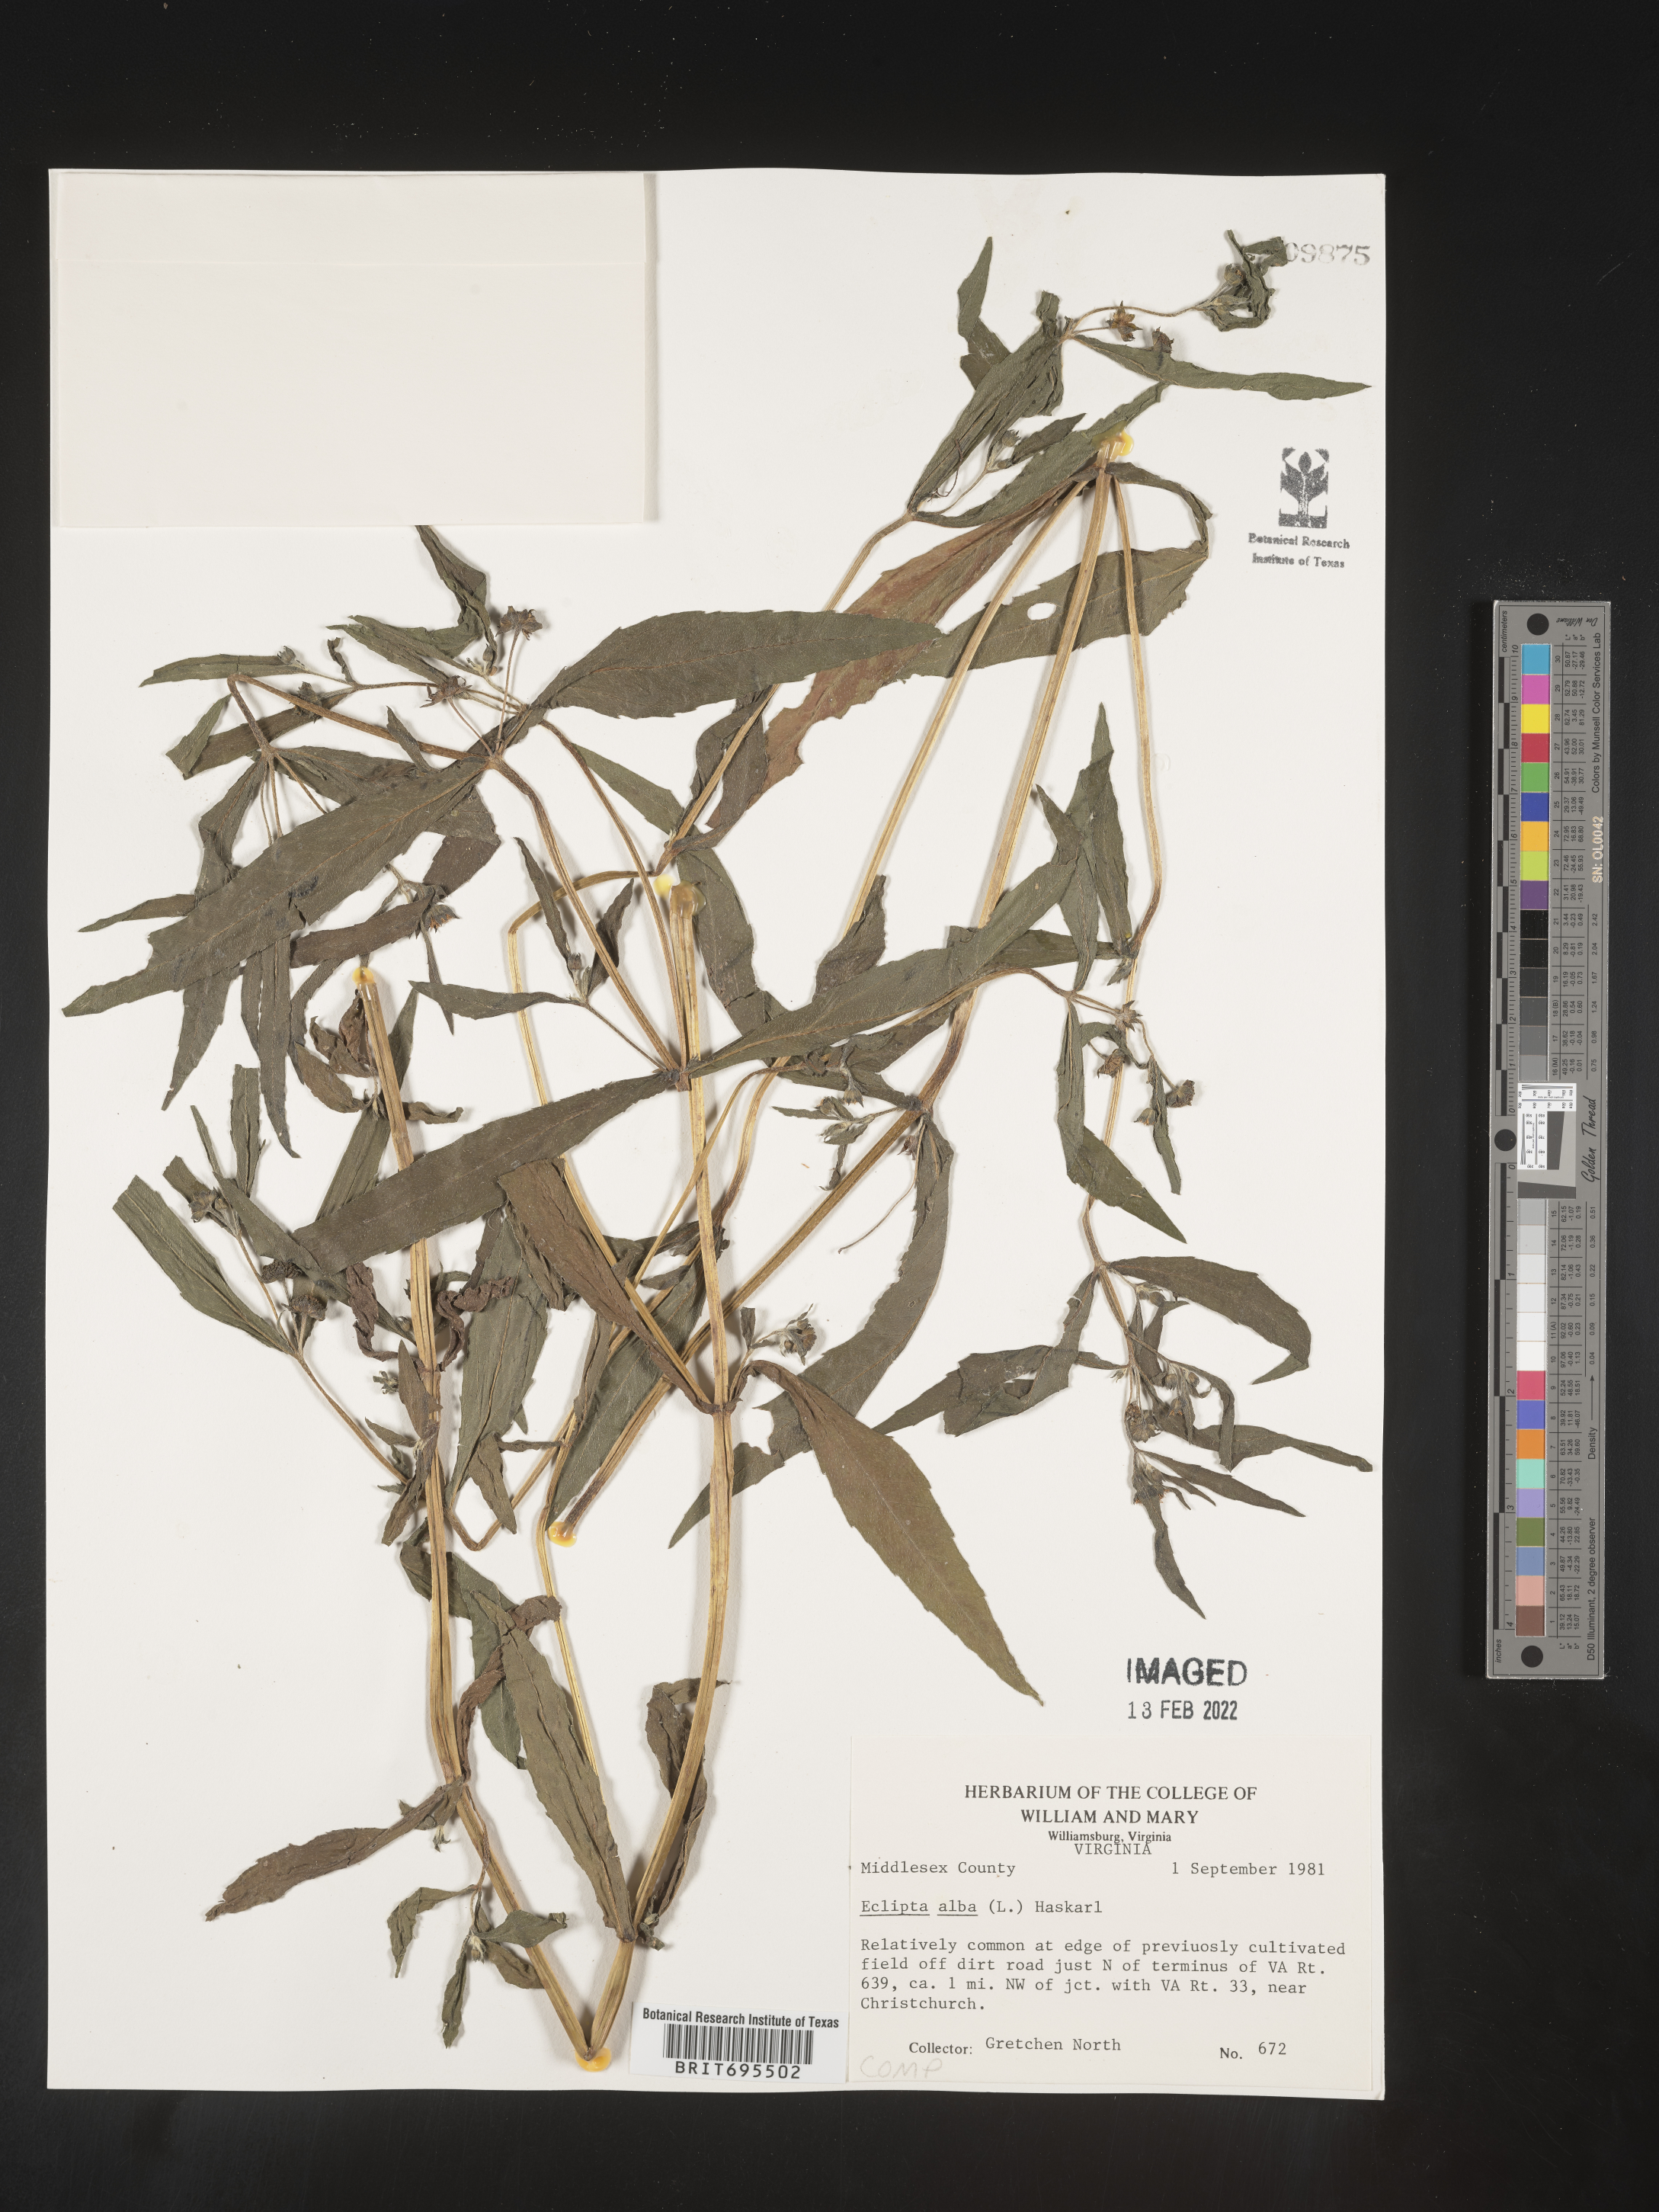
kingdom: Plantae
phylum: Tracheophyta
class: Magnoliopsida
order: Asterales
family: Asteraceae
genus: Eclipta
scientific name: Eclipta alba
